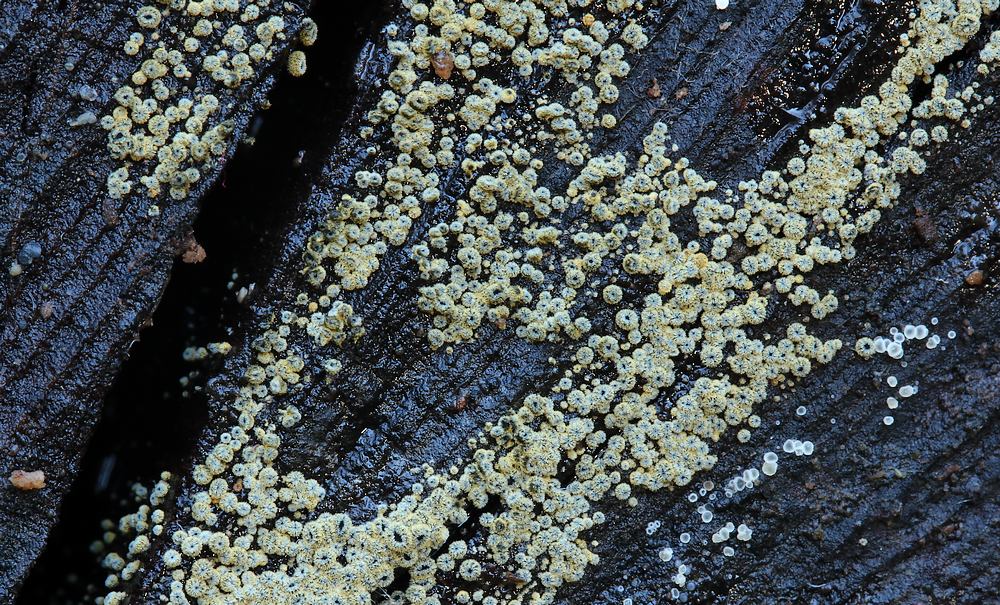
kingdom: Fungi
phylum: Ascomycota
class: Leotiomycetes
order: Helotiales
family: Lachnaceae
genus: Neodasyscypha
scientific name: Neodasyscypha cerina
